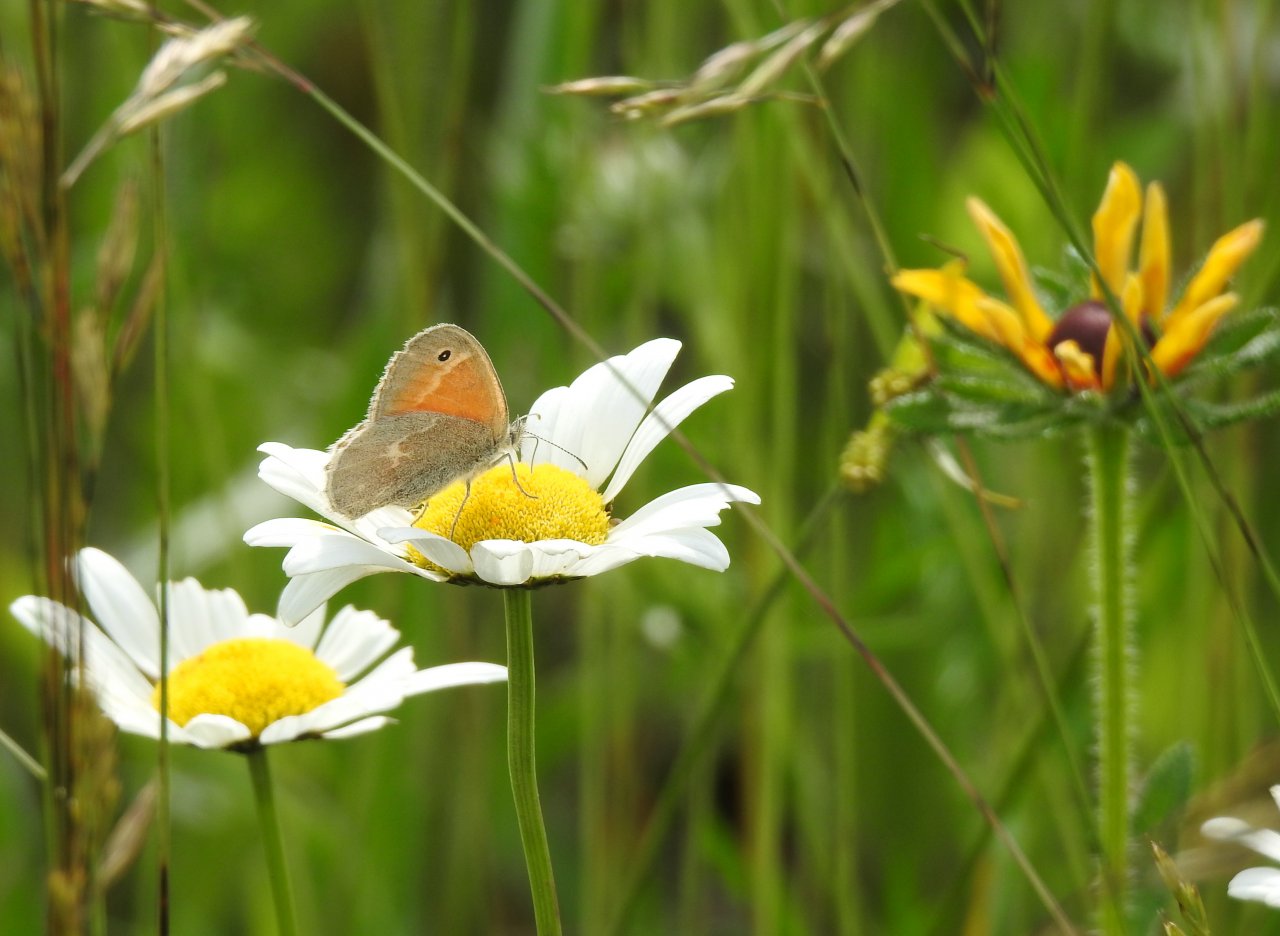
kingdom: Animalia
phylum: Arthropoda
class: Insecta
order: Lepidoptera
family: Nymphalidae
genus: Coenonympha
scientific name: Coenonympha tullia
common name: Large Heath
